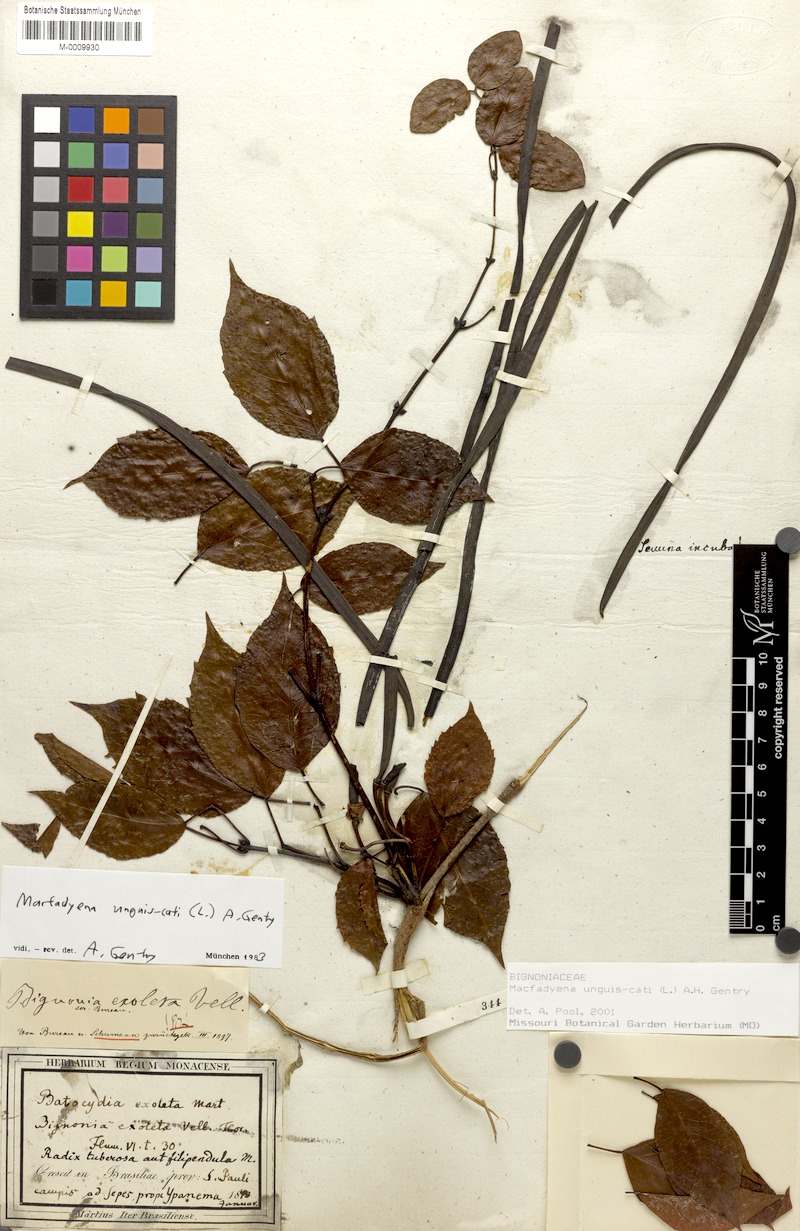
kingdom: Plantae
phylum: Tracheophyta
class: Magnoliopsida
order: Lamiales
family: Bignoniaceae
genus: Dolichandra
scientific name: Dolichandra unguis-cati
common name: Catclaw vine
